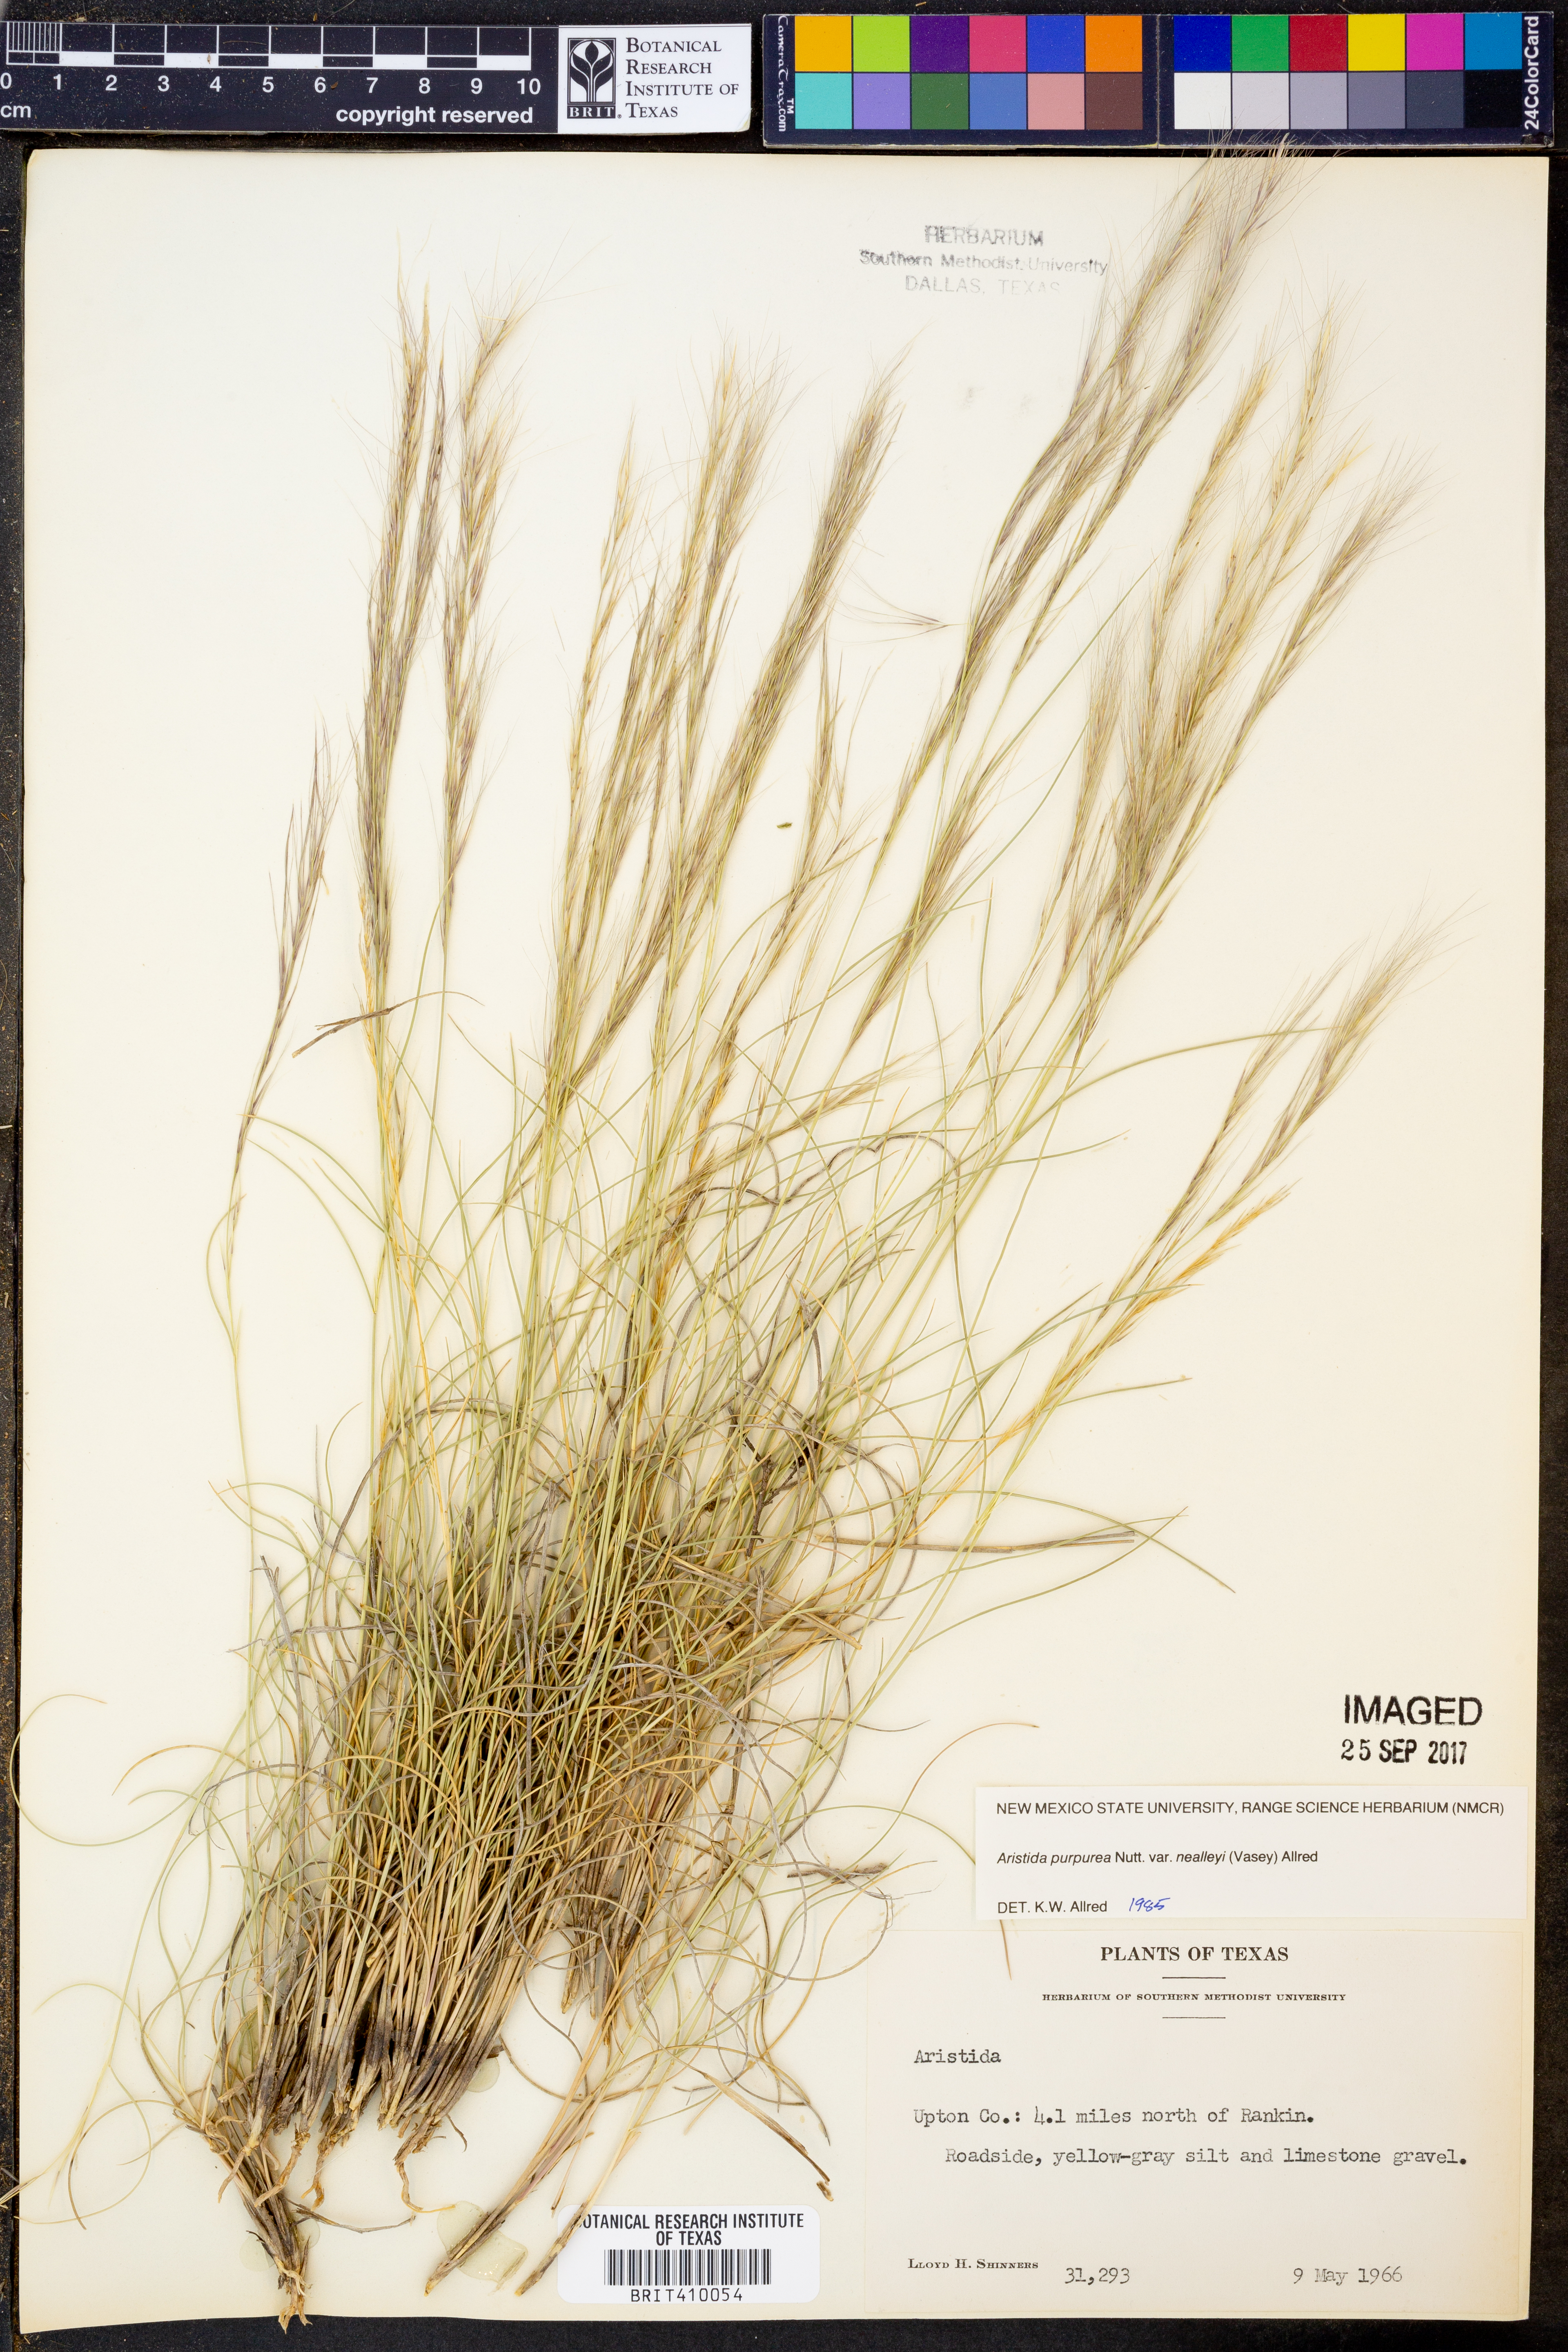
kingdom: Plantae
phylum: Tracheophyta
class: Liliopsida
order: Poales
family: Poaceae
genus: Aristida
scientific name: Aristida glauca
